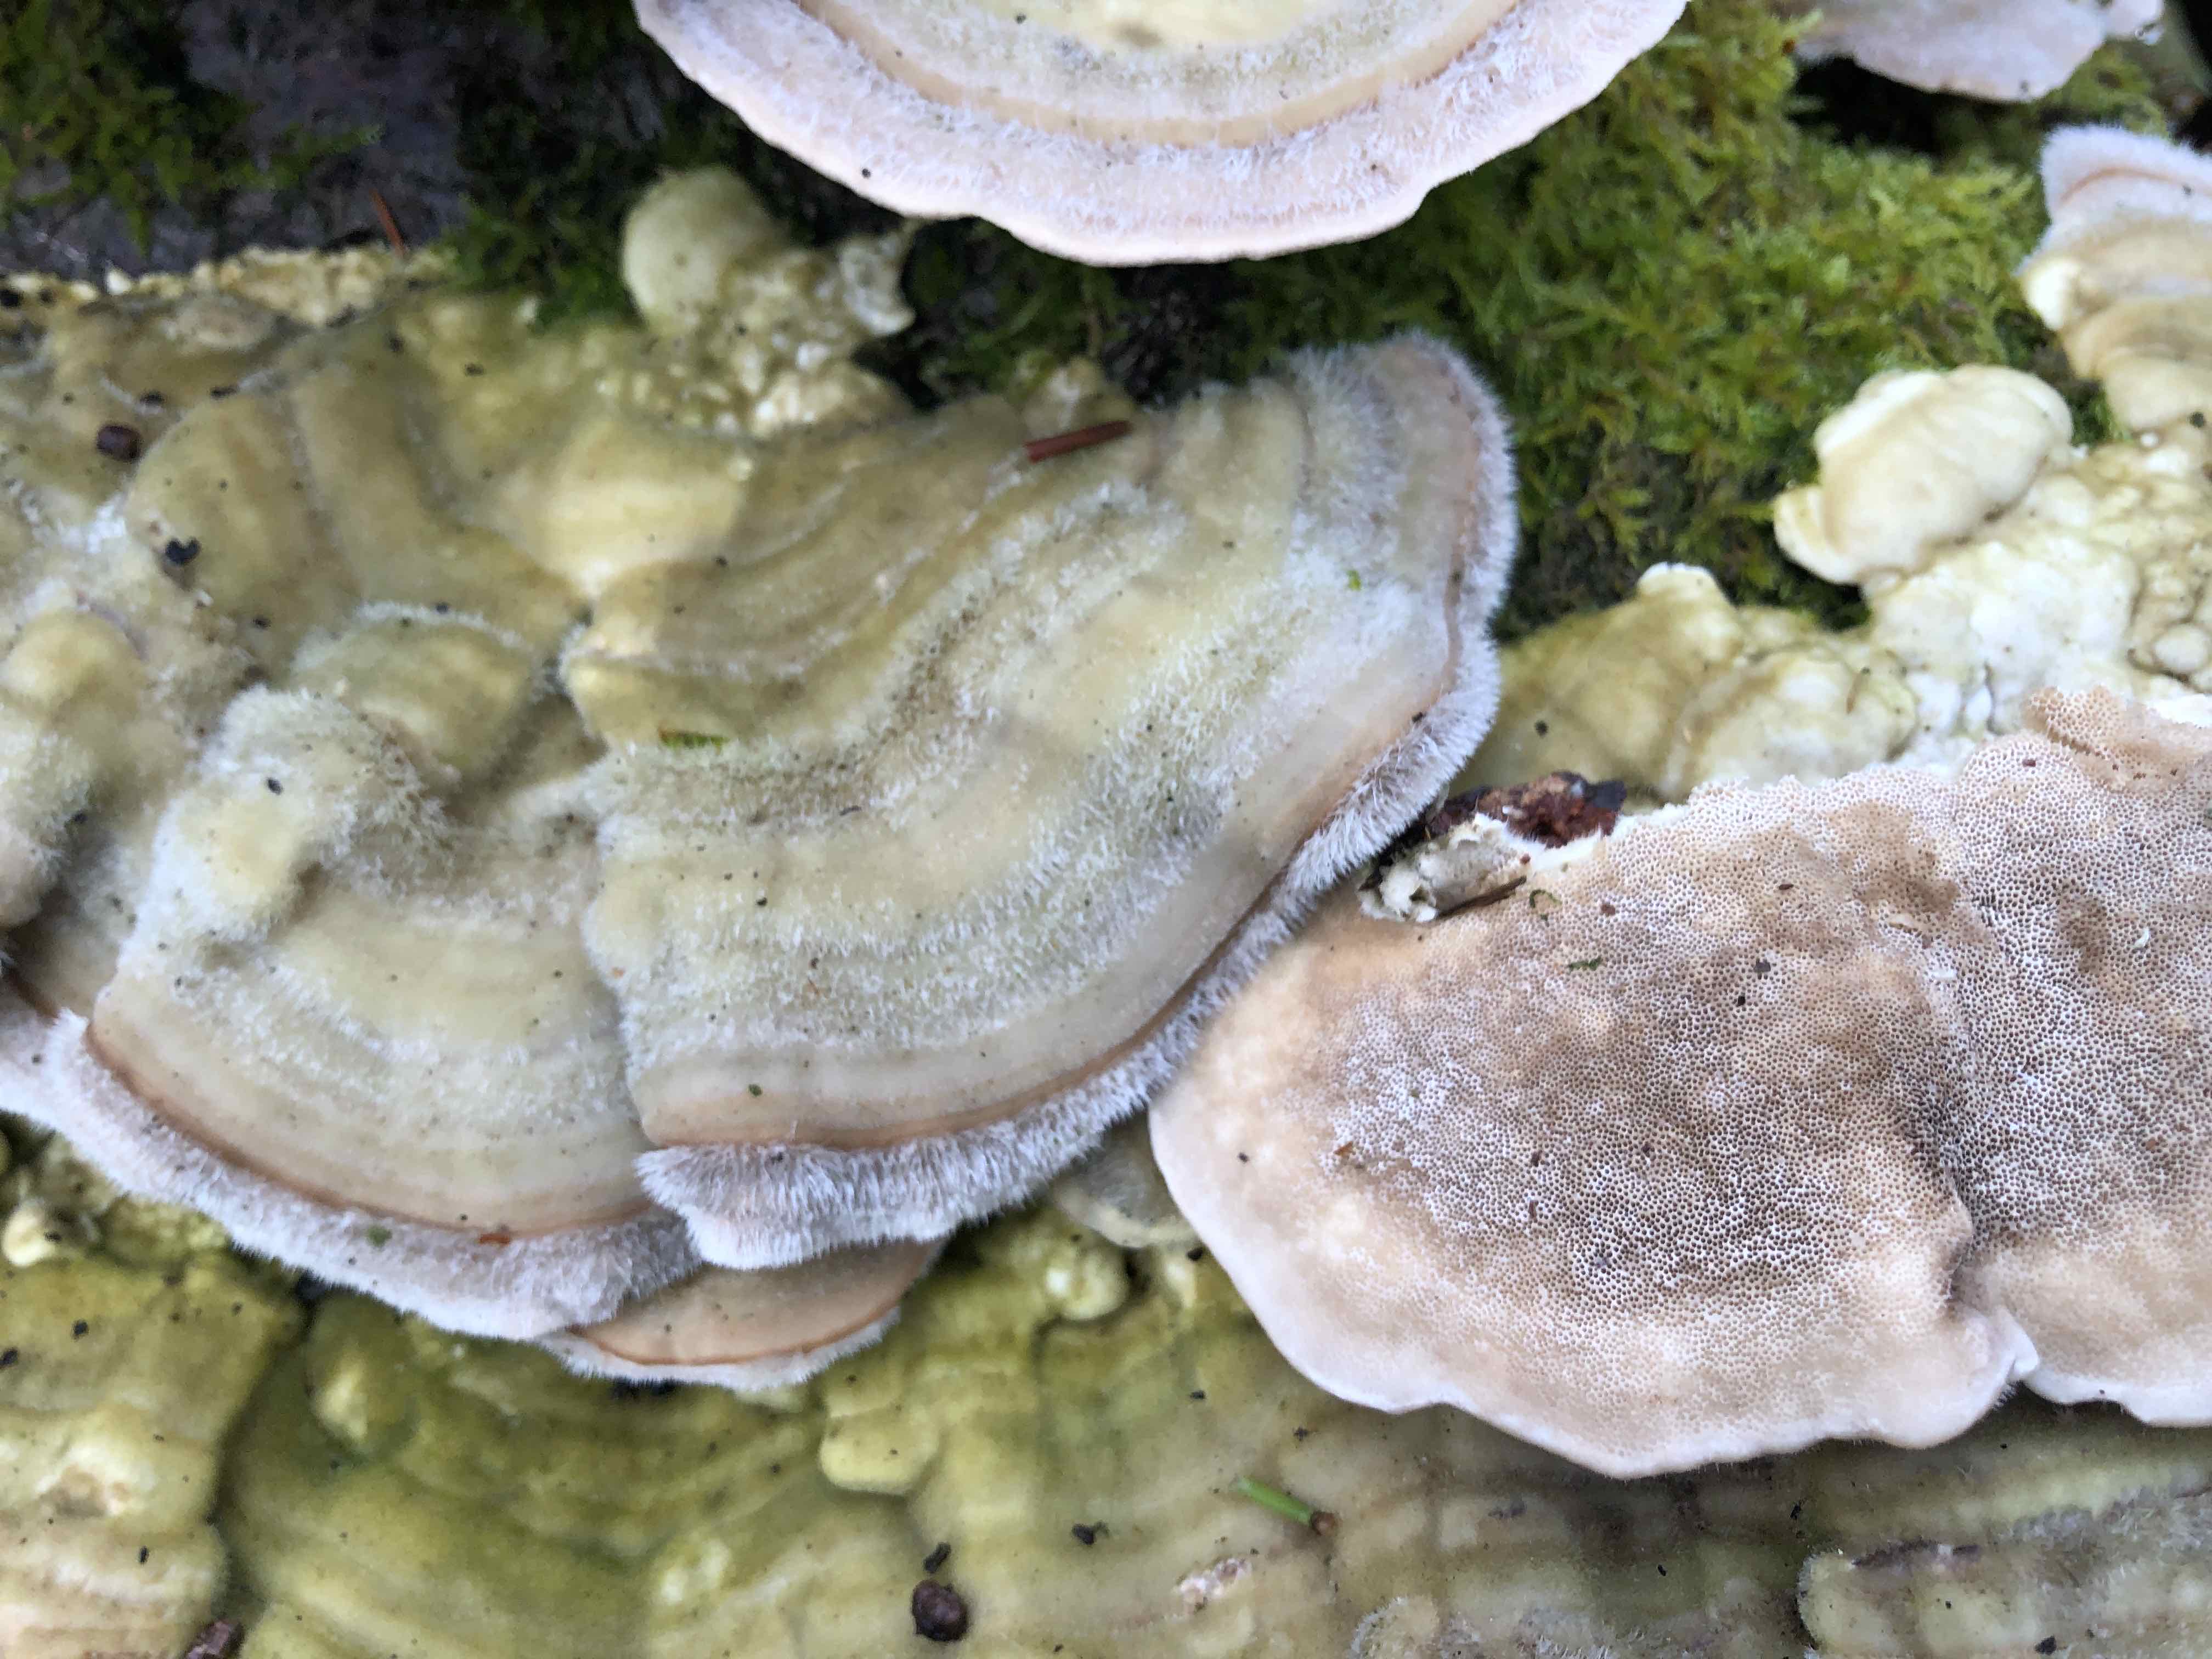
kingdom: Fungi
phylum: Basidiomycota
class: Agaricomycetes
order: Polyporales
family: Polyporaceae
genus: Trametes
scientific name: Trametes hirsuta
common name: håret læderporesvamp
